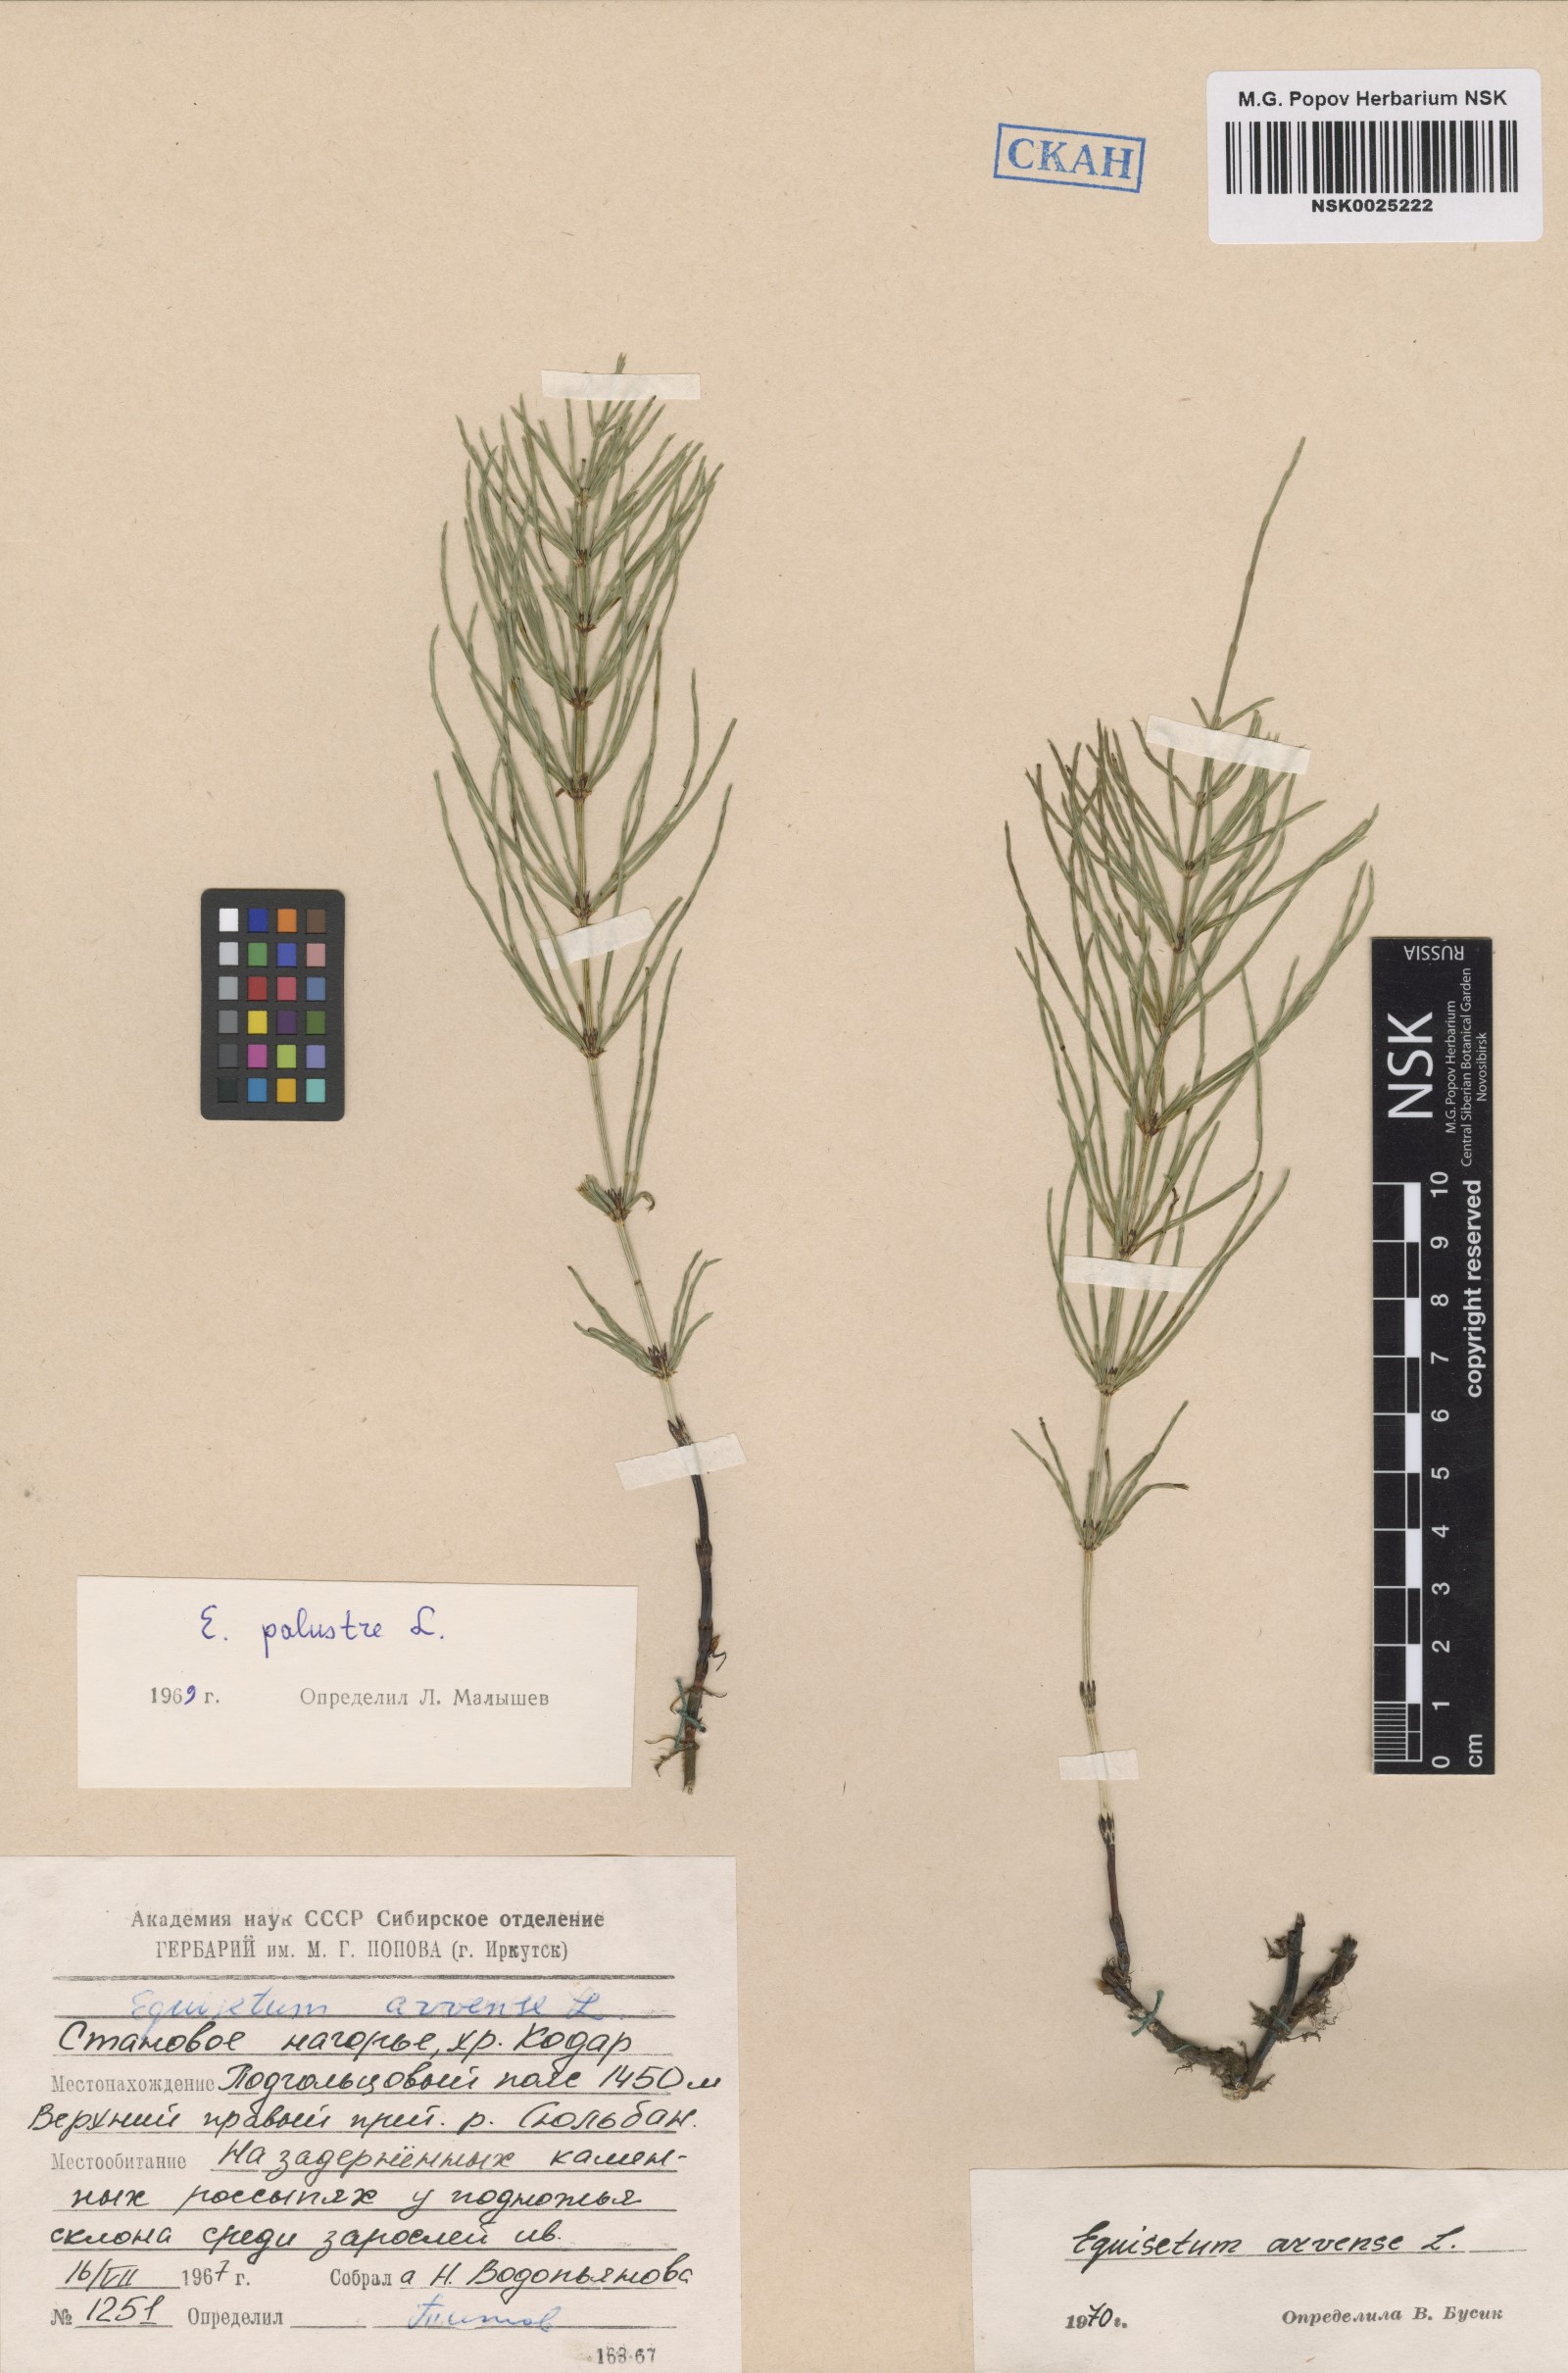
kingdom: Plantae
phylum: Tracheophyta
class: Polypodiopsida
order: Equisetales
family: Equisetaceae
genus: Equisetum
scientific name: Equisetum arvense
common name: Field horsetail
